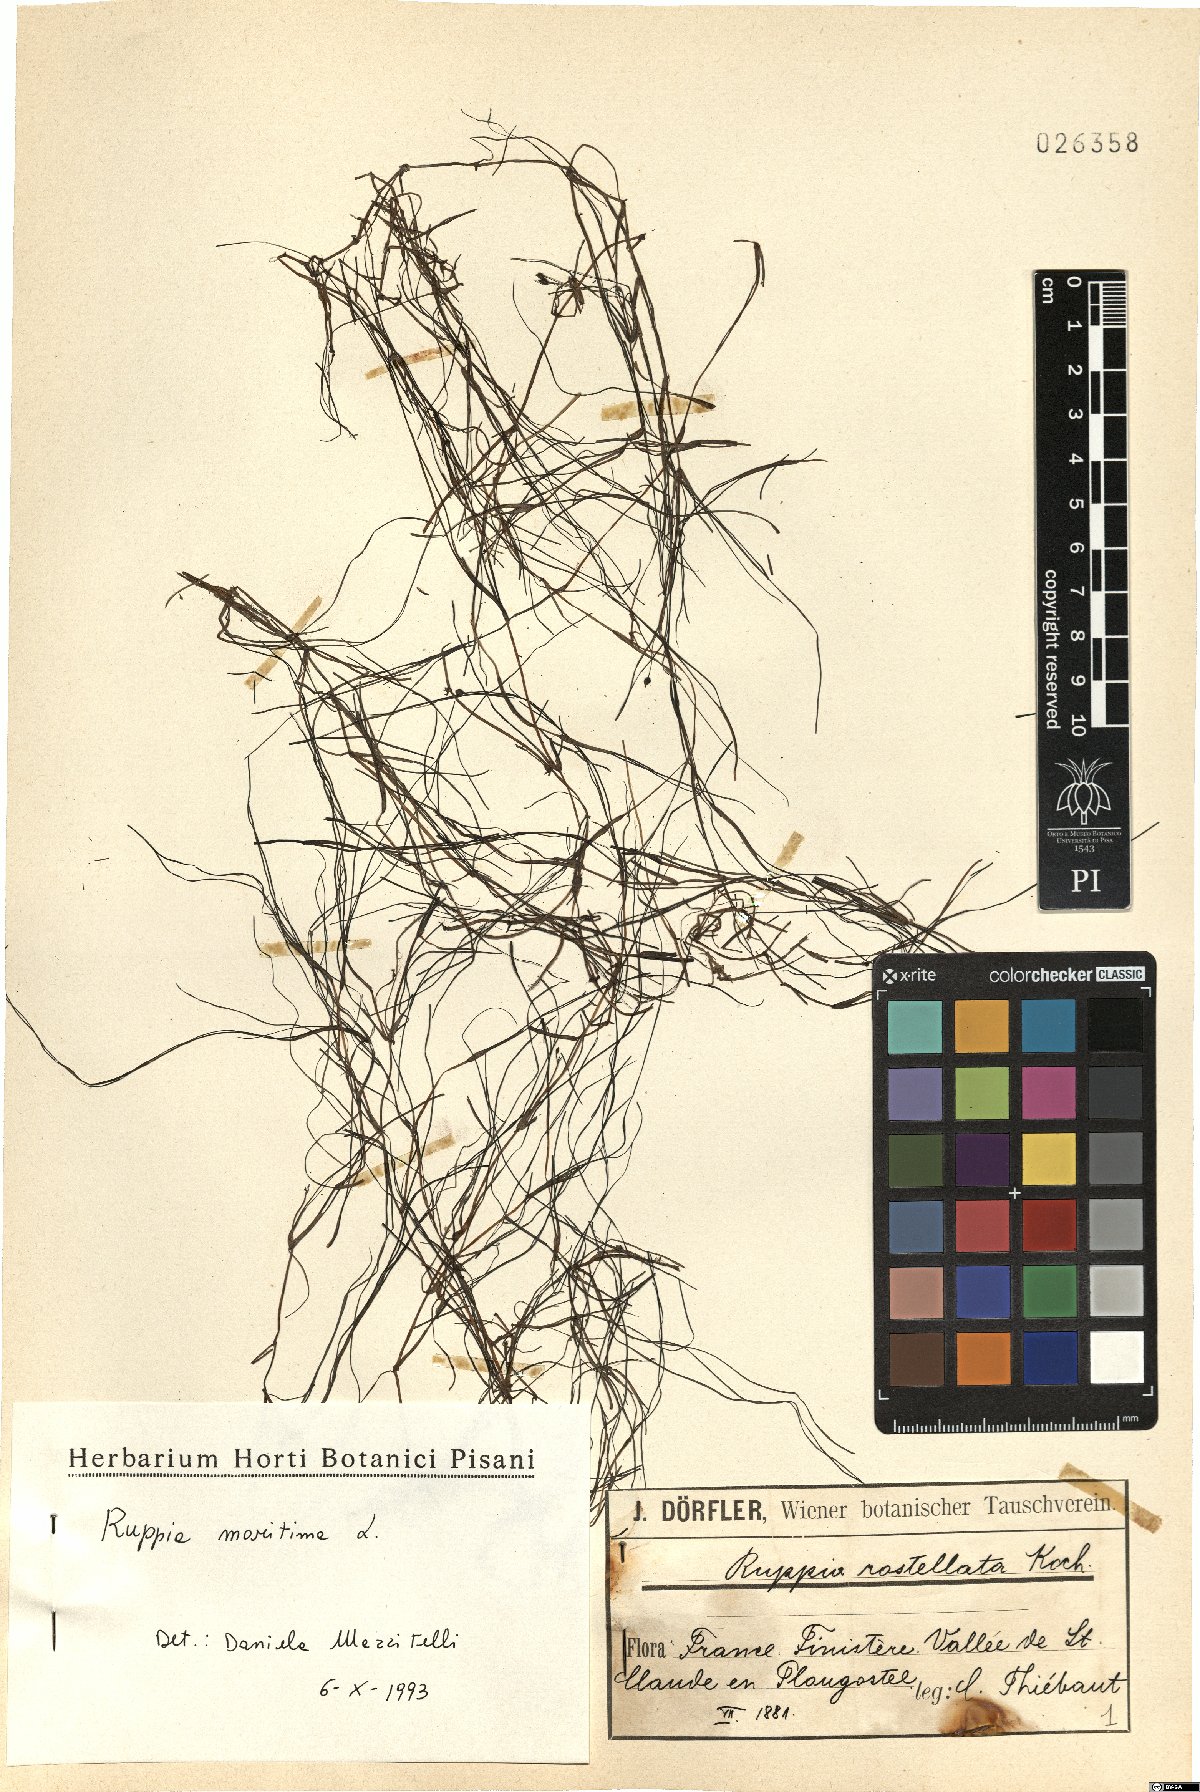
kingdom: Plantae
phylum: Tracheophyta
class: Liliopsida
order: Alismatales
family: Ruppiaceae
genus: Ruppia
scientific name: Ruppia maritima
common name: Beaked tasselweed
